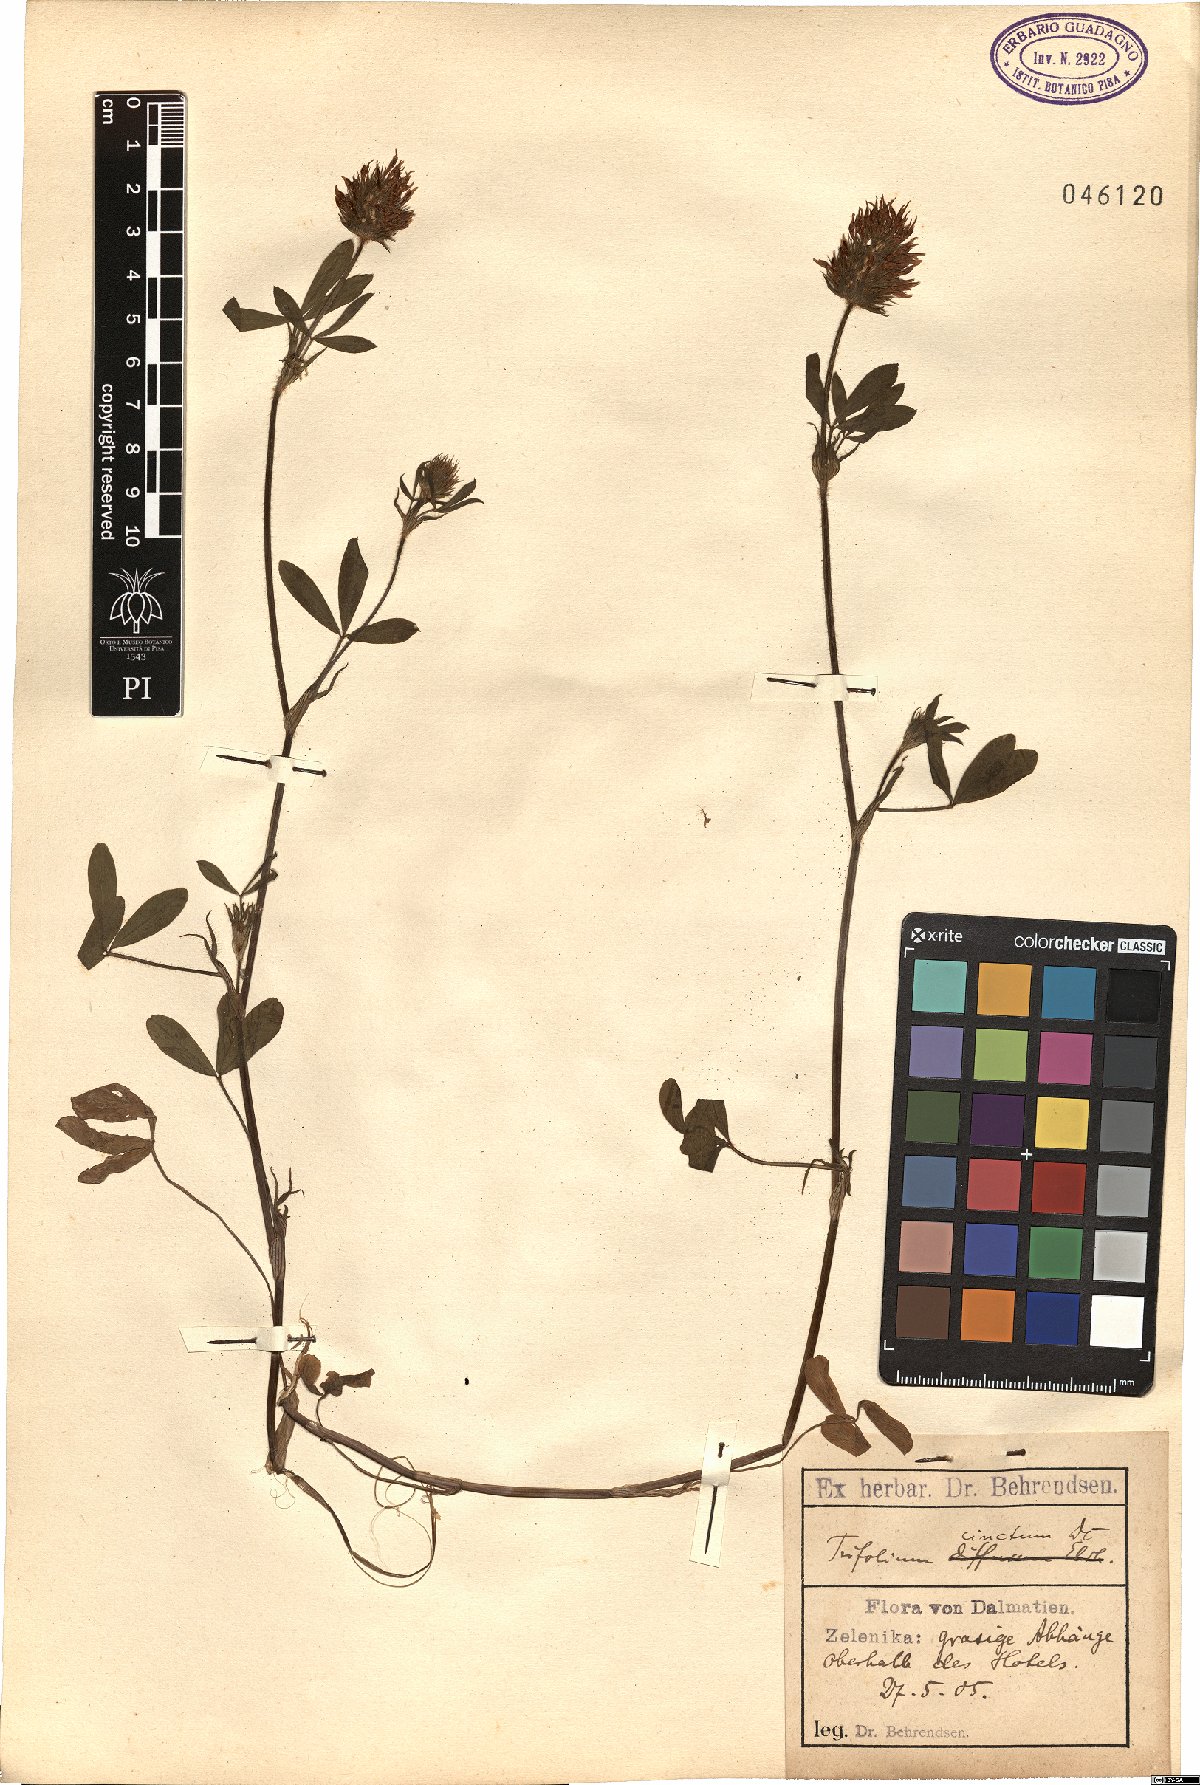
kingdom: Plantae
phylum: Tracheophyta
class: Magnoliopsida
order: Fabales
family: Fabaceae
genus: Trifolium
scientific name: Trifolium squamosum
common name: Sea clover
